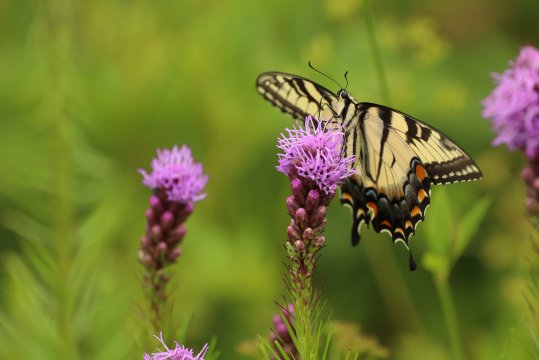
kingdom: Animalia
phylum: Arthropoda
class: Insecta
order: Lepidoptera
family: Papilionidae
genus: Pterourus
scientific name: Pterourus glaucus
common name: Eastern Tiger Swallowtail
